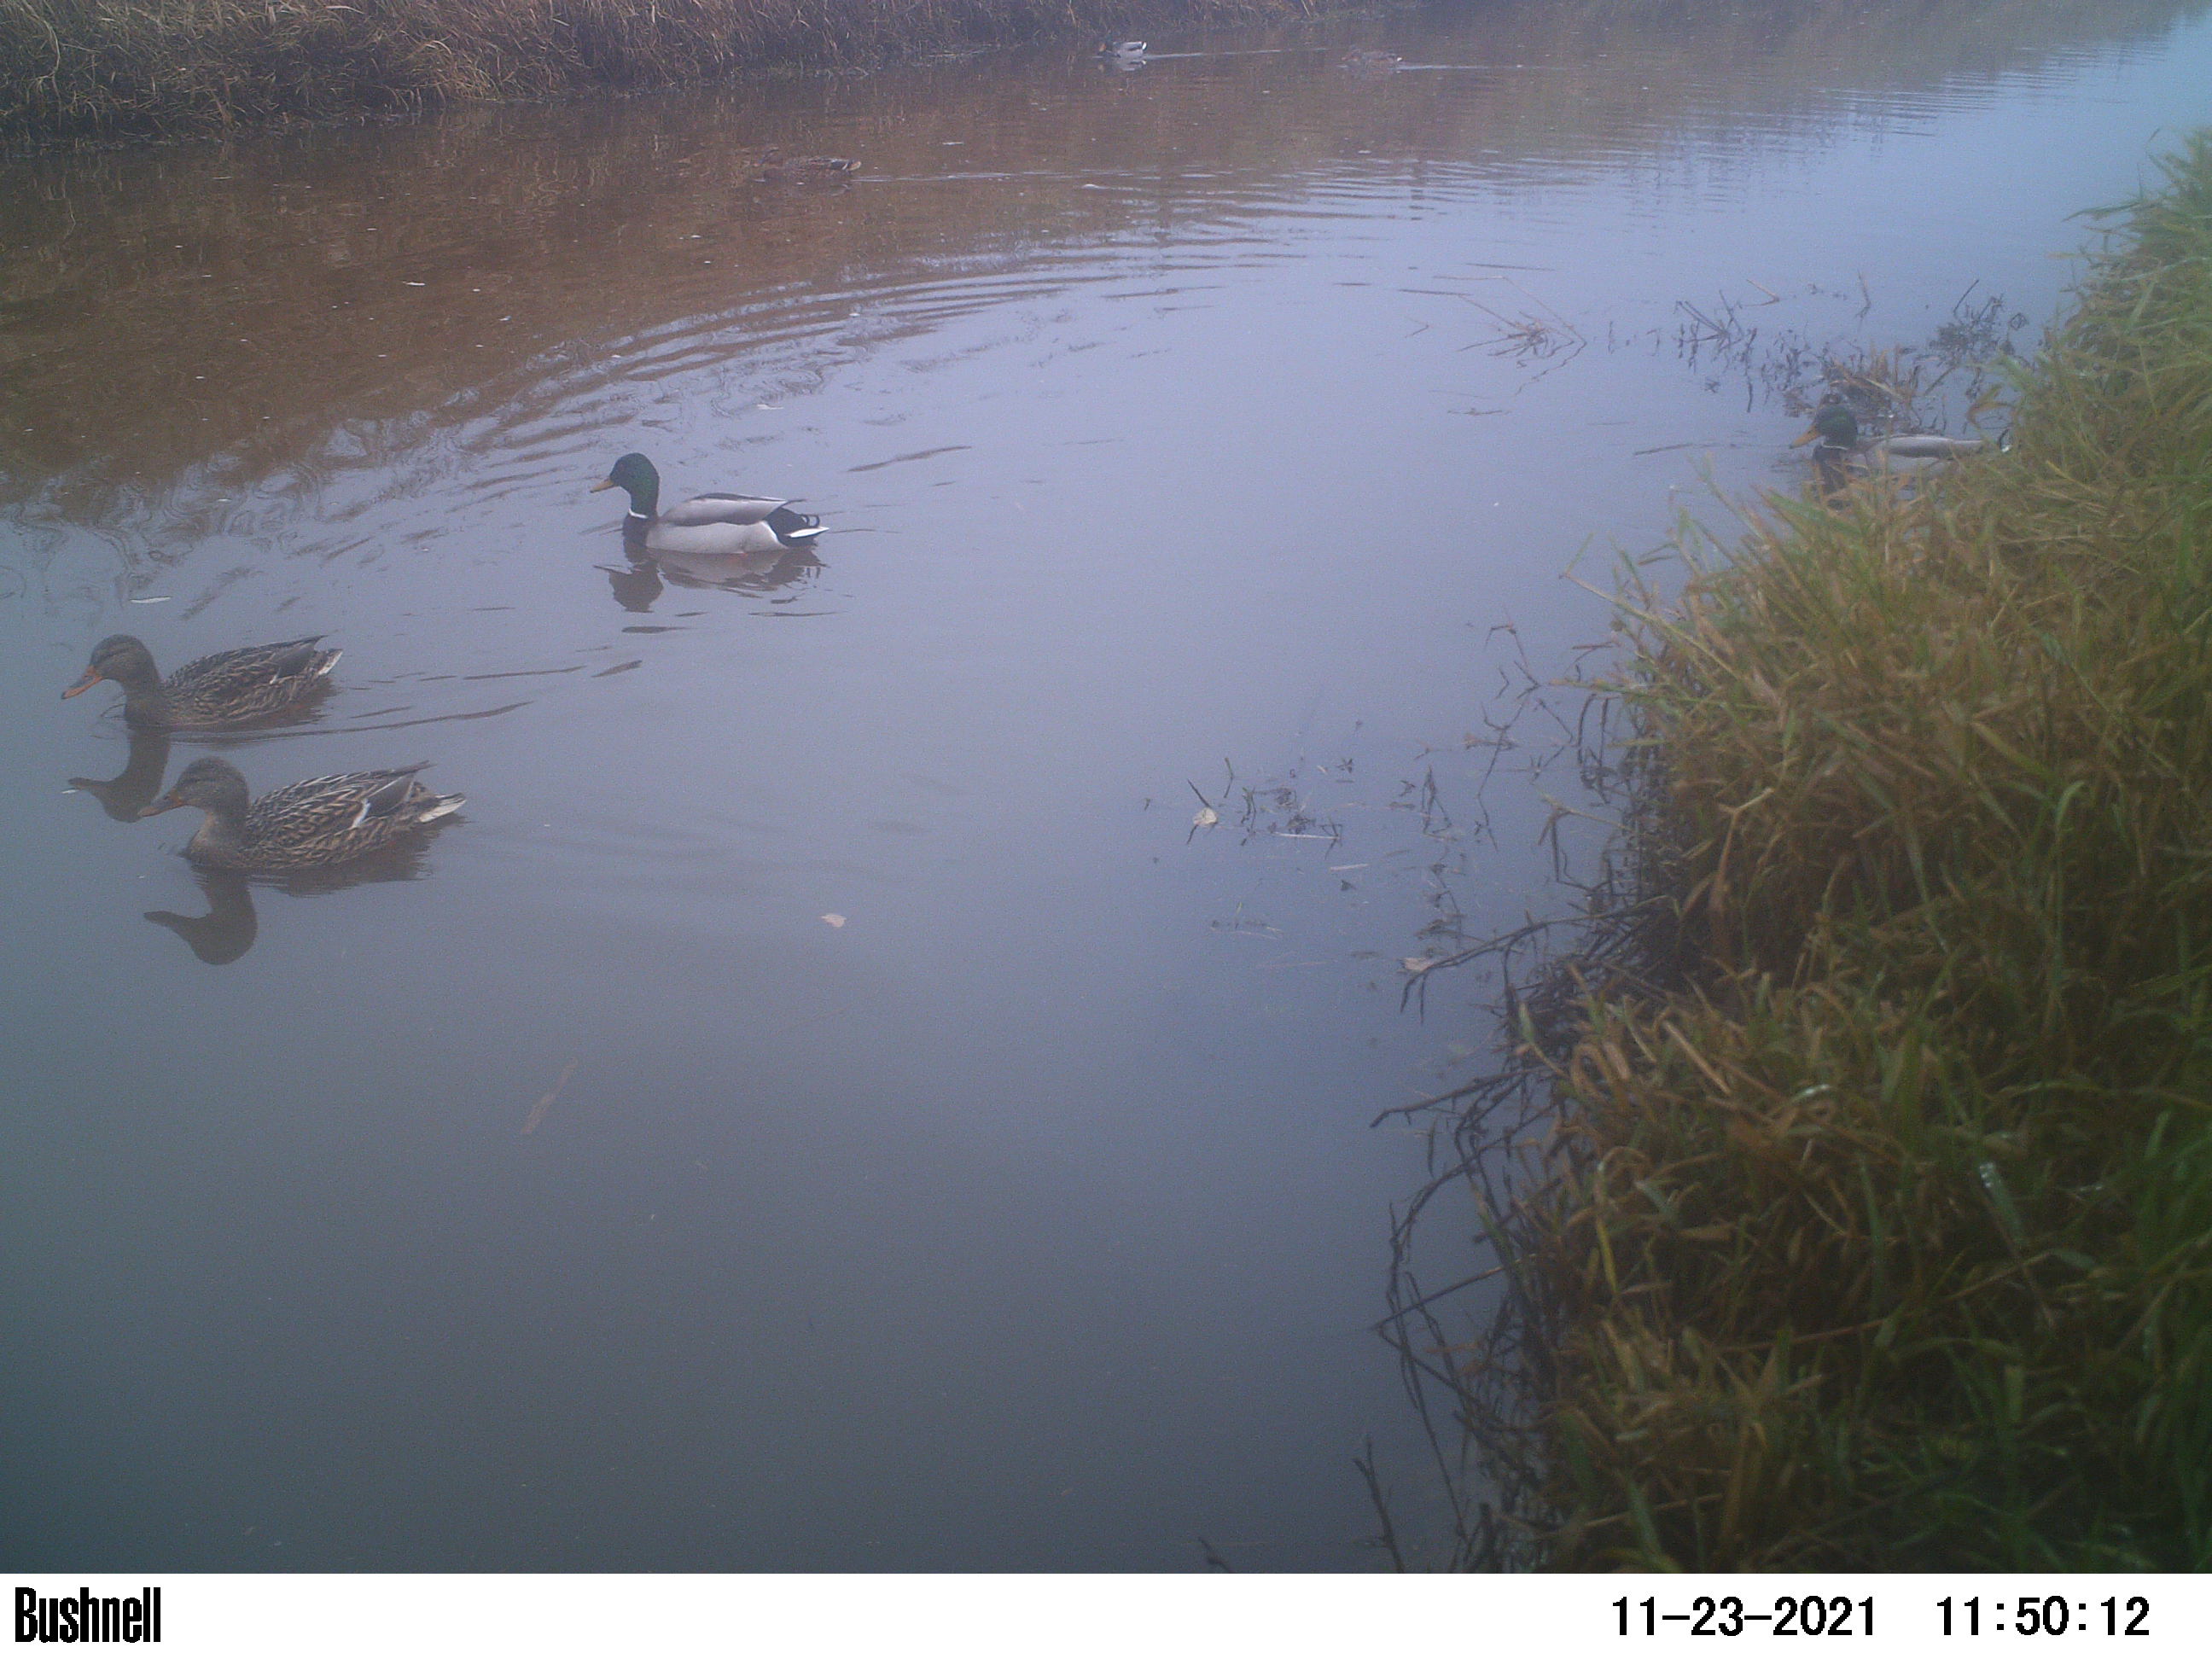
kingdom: Animalia
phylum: Chordata
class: Aves
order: Anseriformes
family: Anatidae
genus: Anas
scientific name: Anas
